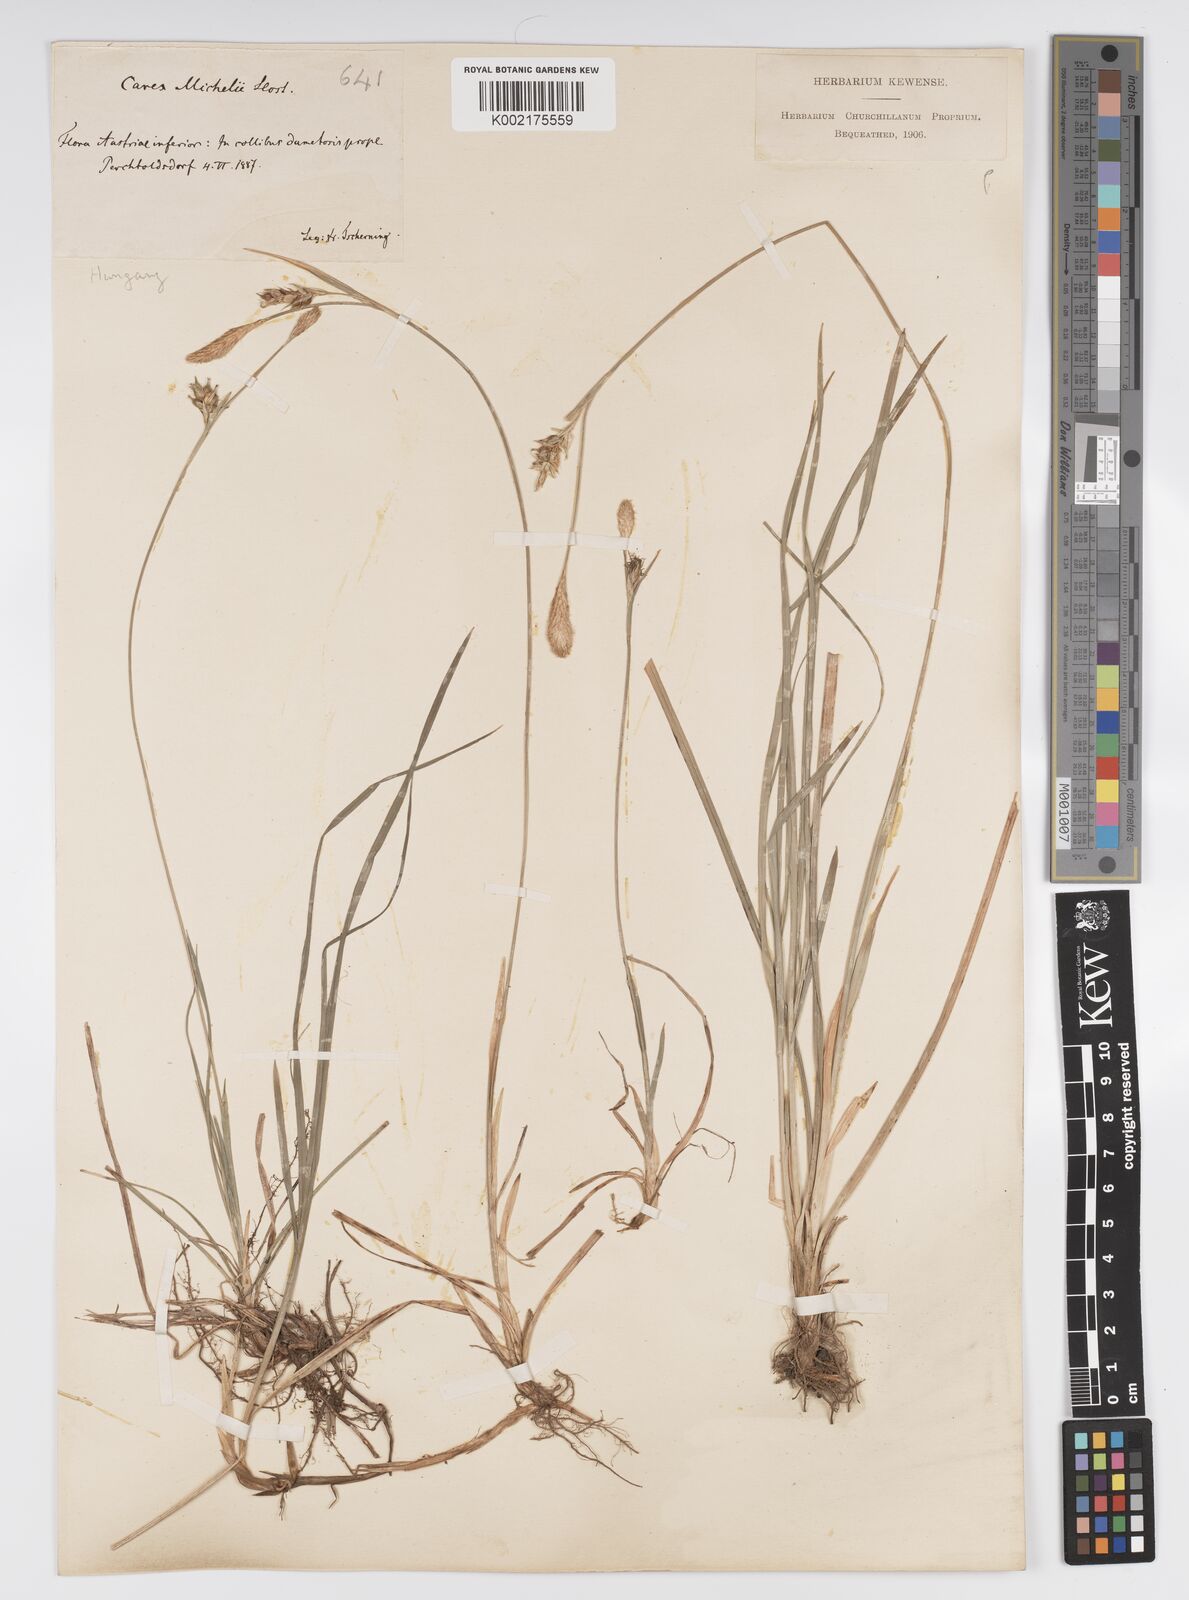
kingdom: Plantae
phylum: Tracheophyta
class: Liliopsida
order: Poales
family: Cyperaceae
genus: Carex
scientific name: Carex michelii
